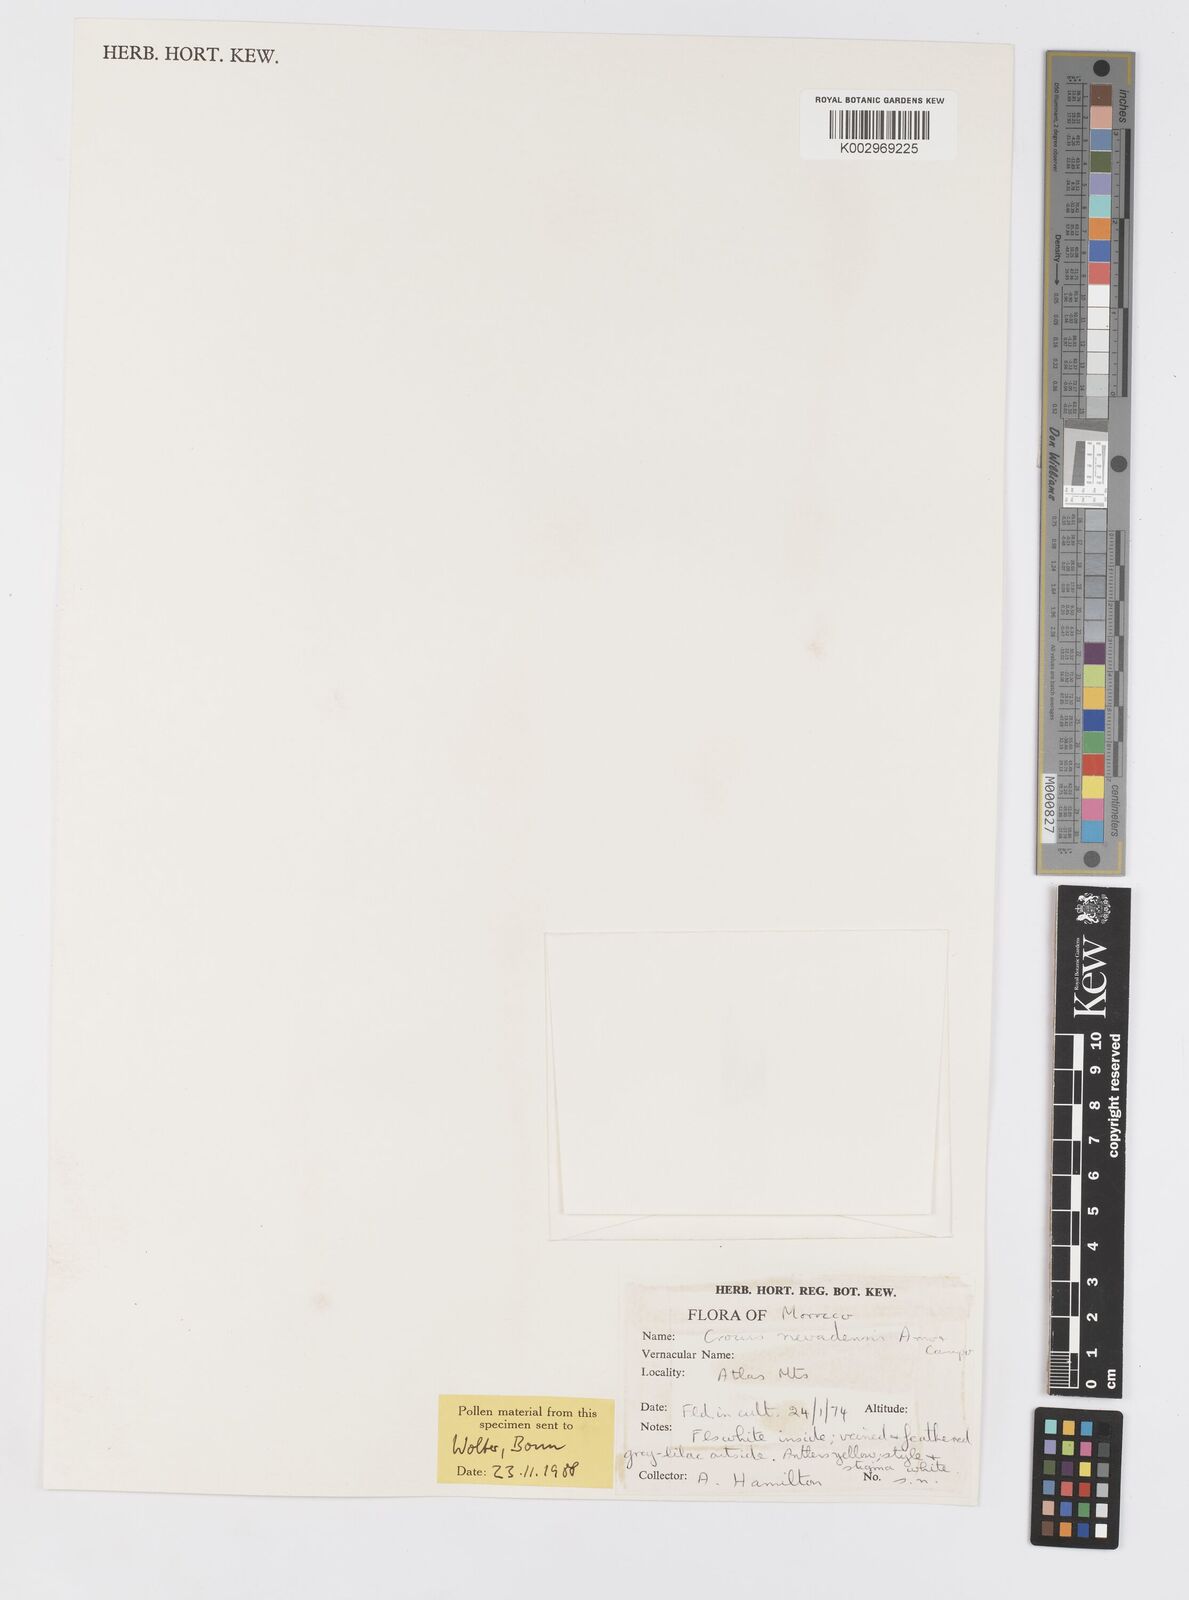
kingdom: Plantae
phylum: Tracheophyta
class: Liliopsida
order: Asparagales
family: Iridaceae
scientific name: Iridaceae
